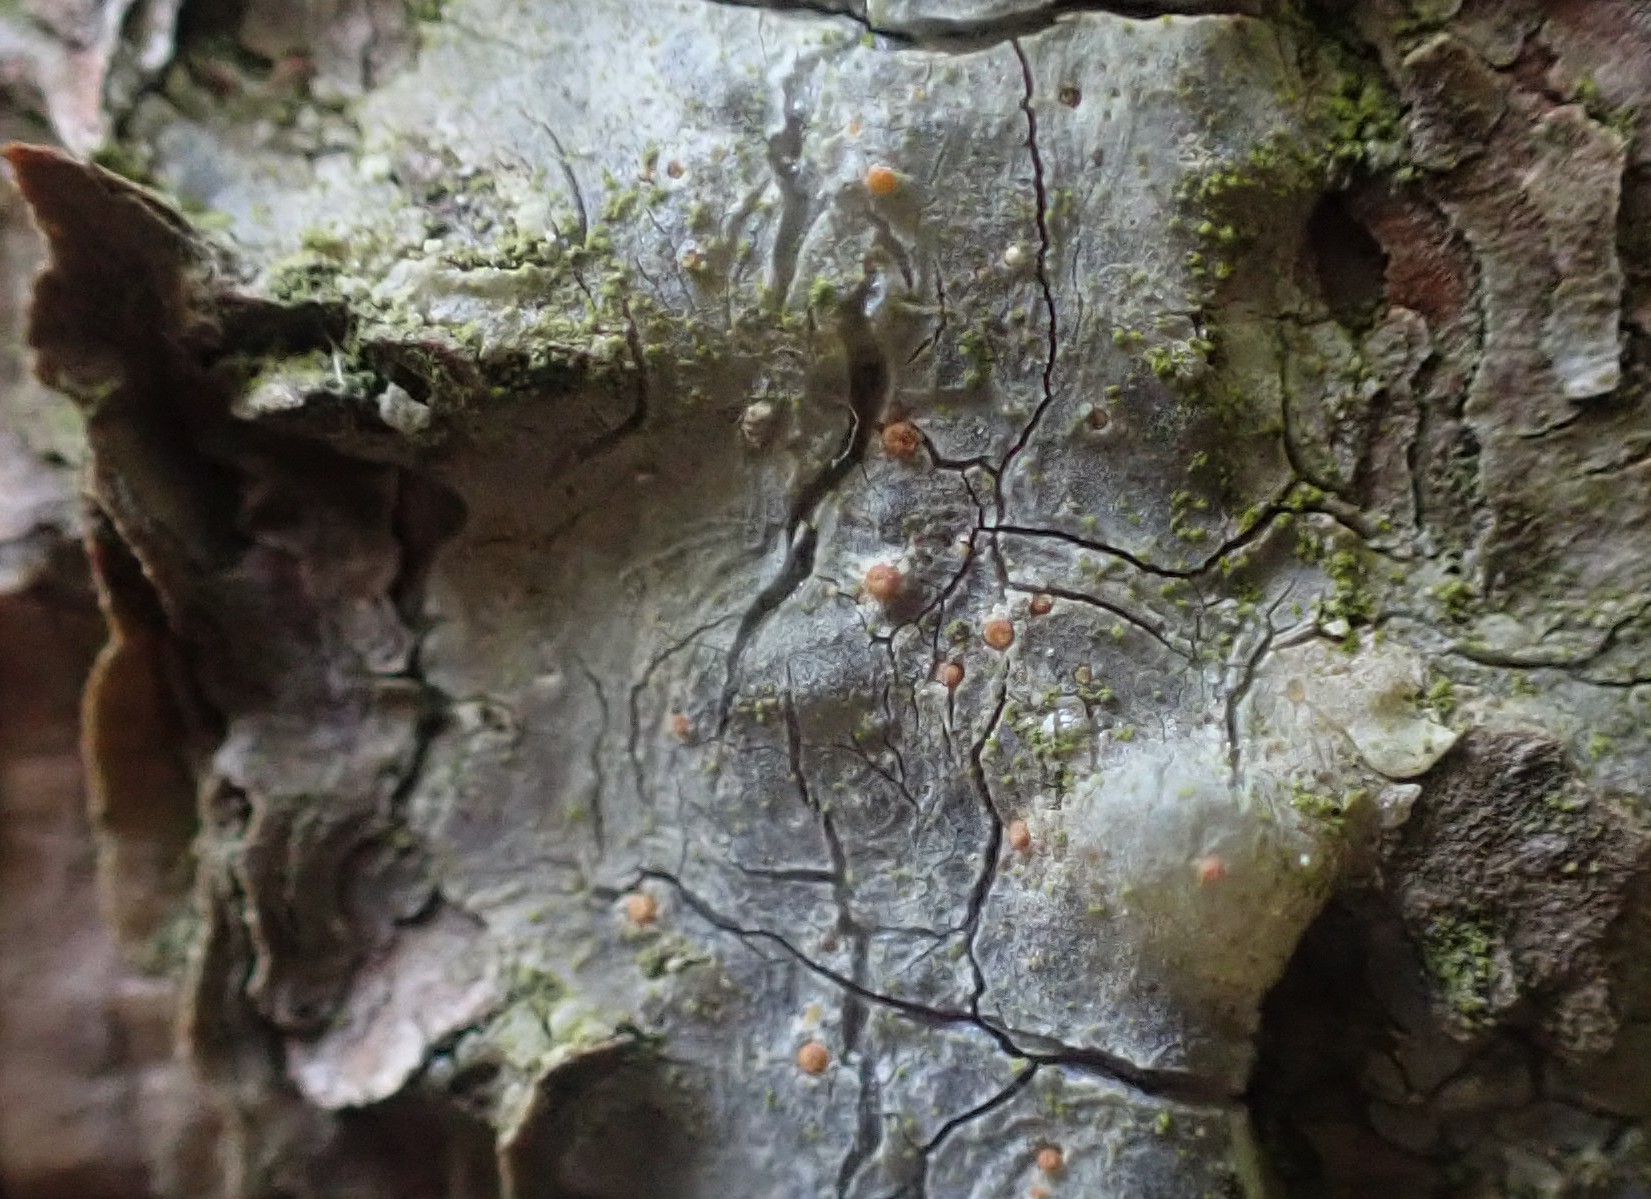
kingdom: Fungi
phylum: Ascomycota
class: Sareomycetes
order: Sareales
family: Sareaceae
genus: Sarea
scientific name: Sarea resinae
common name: orangegul harpiksskive
